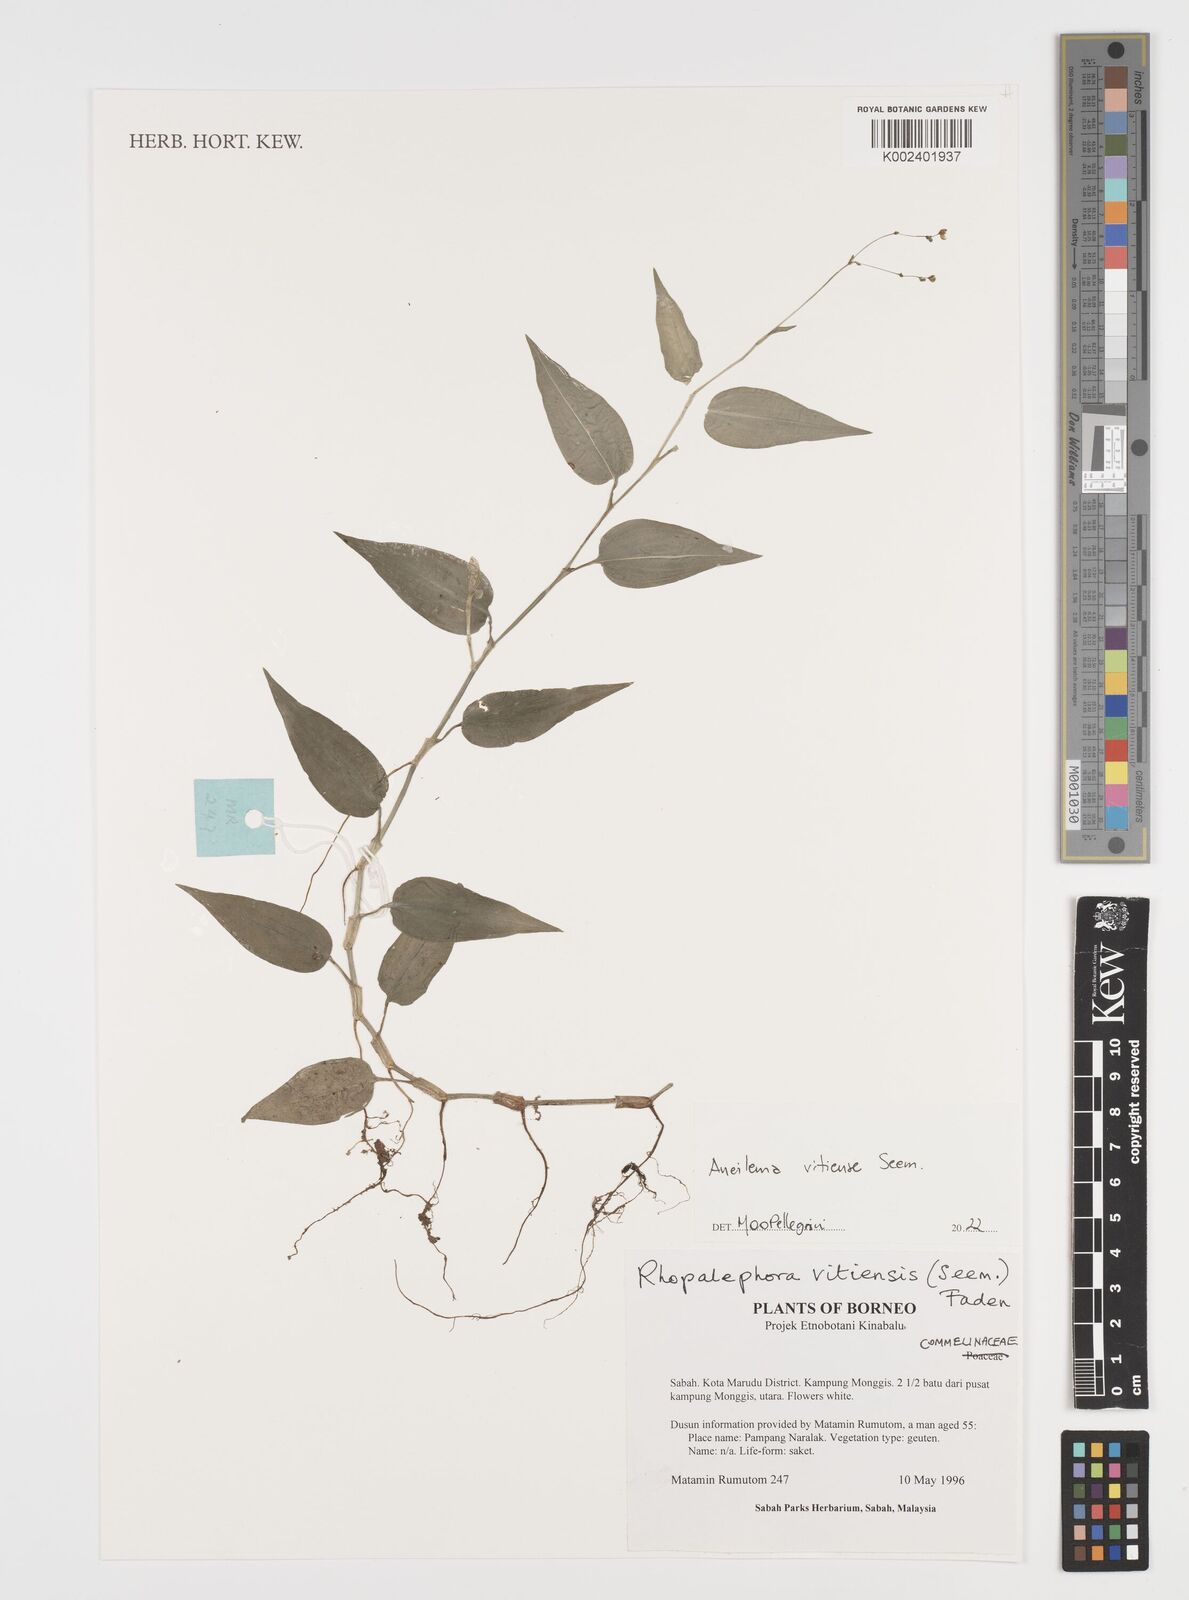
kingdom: Plantae
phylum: Tracheophyta
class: Liliopsida
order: Commelinales
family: Commelinaceae
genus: Rhopalephora
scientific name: Rhopalephora vitiensis
